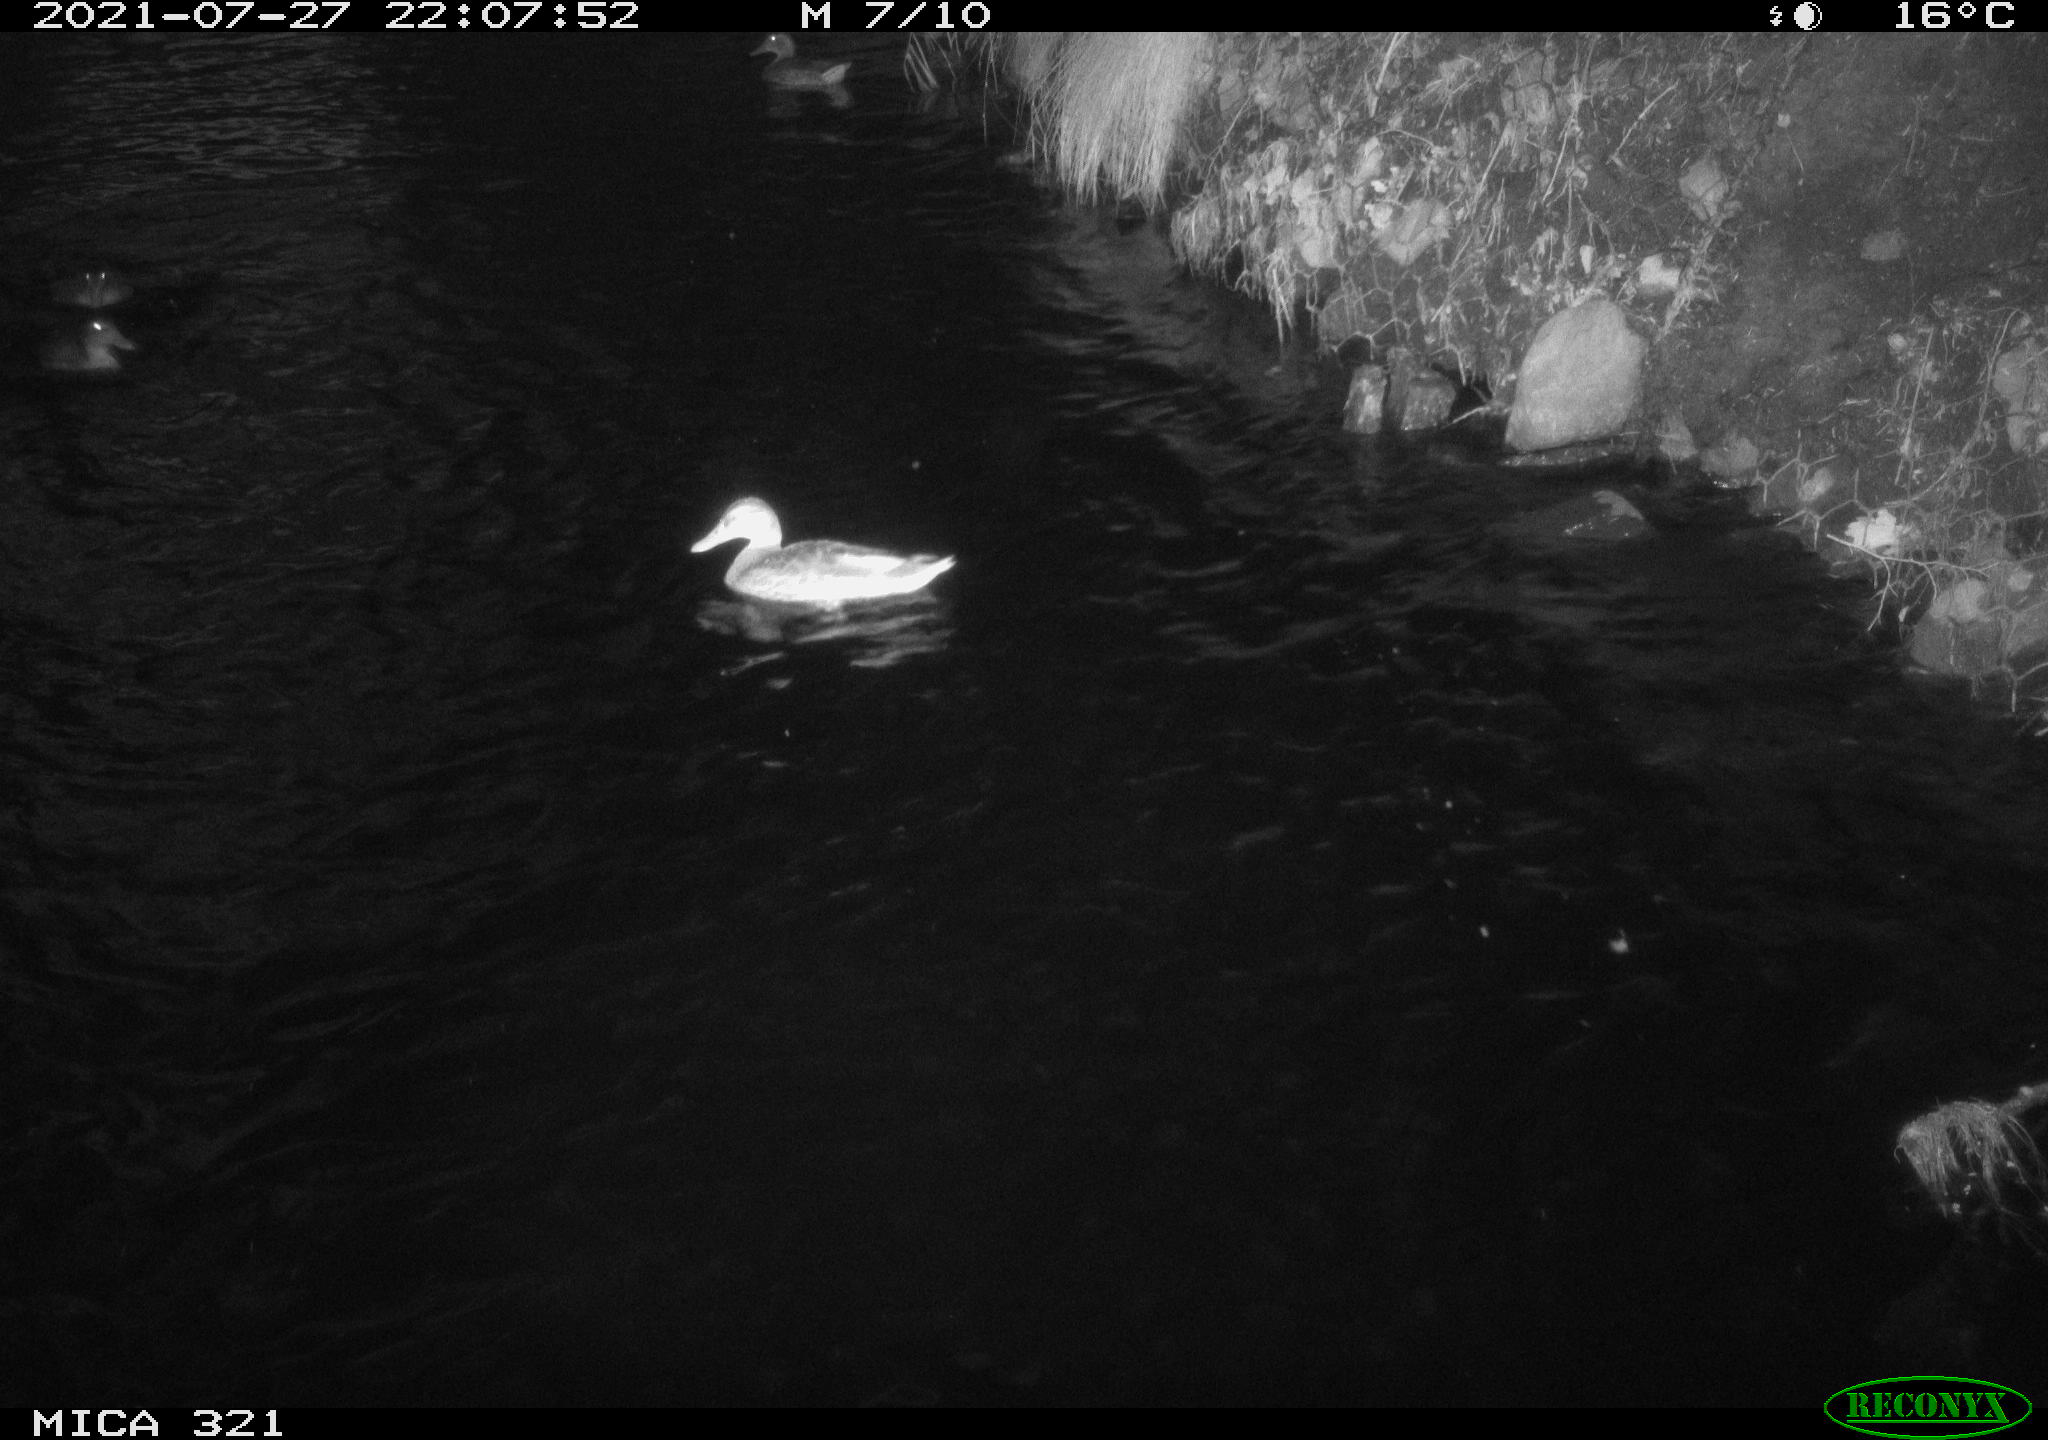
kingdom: Animalia
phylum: Chordata
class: Aves
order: Anseriformes
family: Anatidae
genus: Anas
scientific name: Anas platyrhynchos
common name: Mallard
